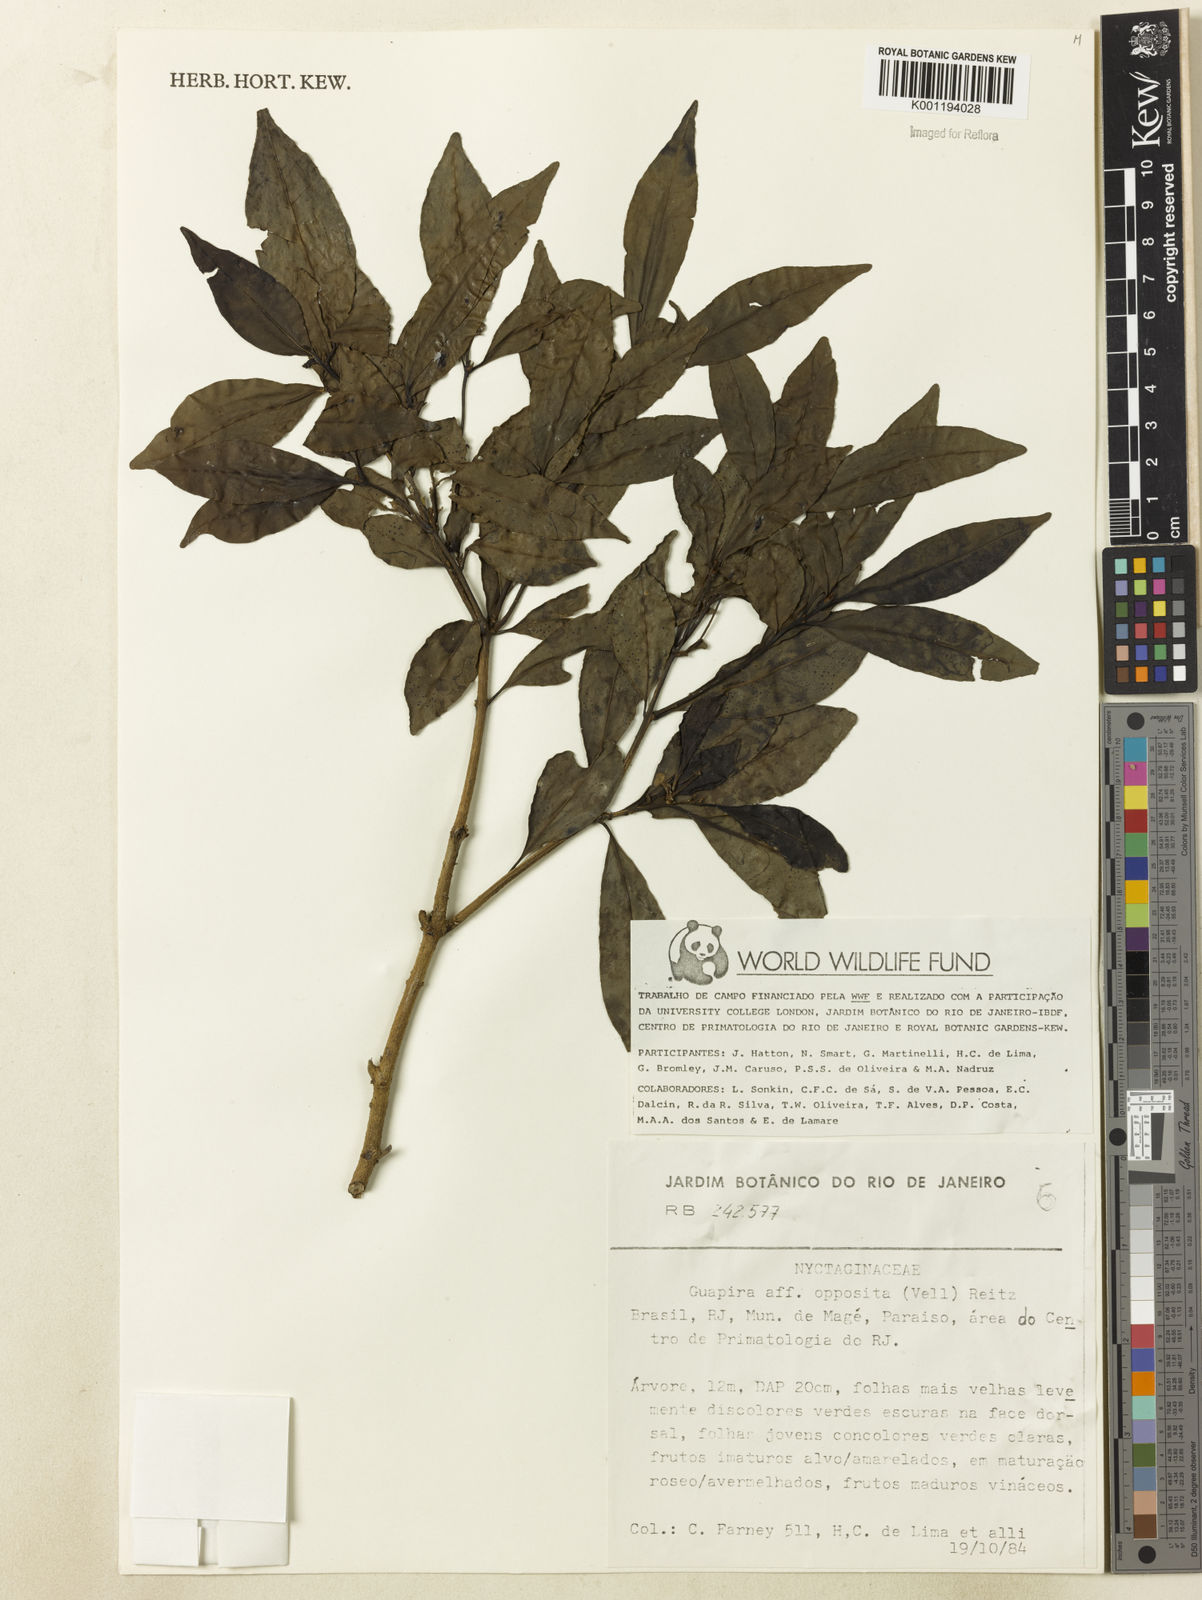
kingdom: Plantae
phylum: Tracheophyta
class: Magnoliopsida
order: Caryophyllales
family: Nyctaginaceae
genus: Guapira
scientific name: Guapira opposita
